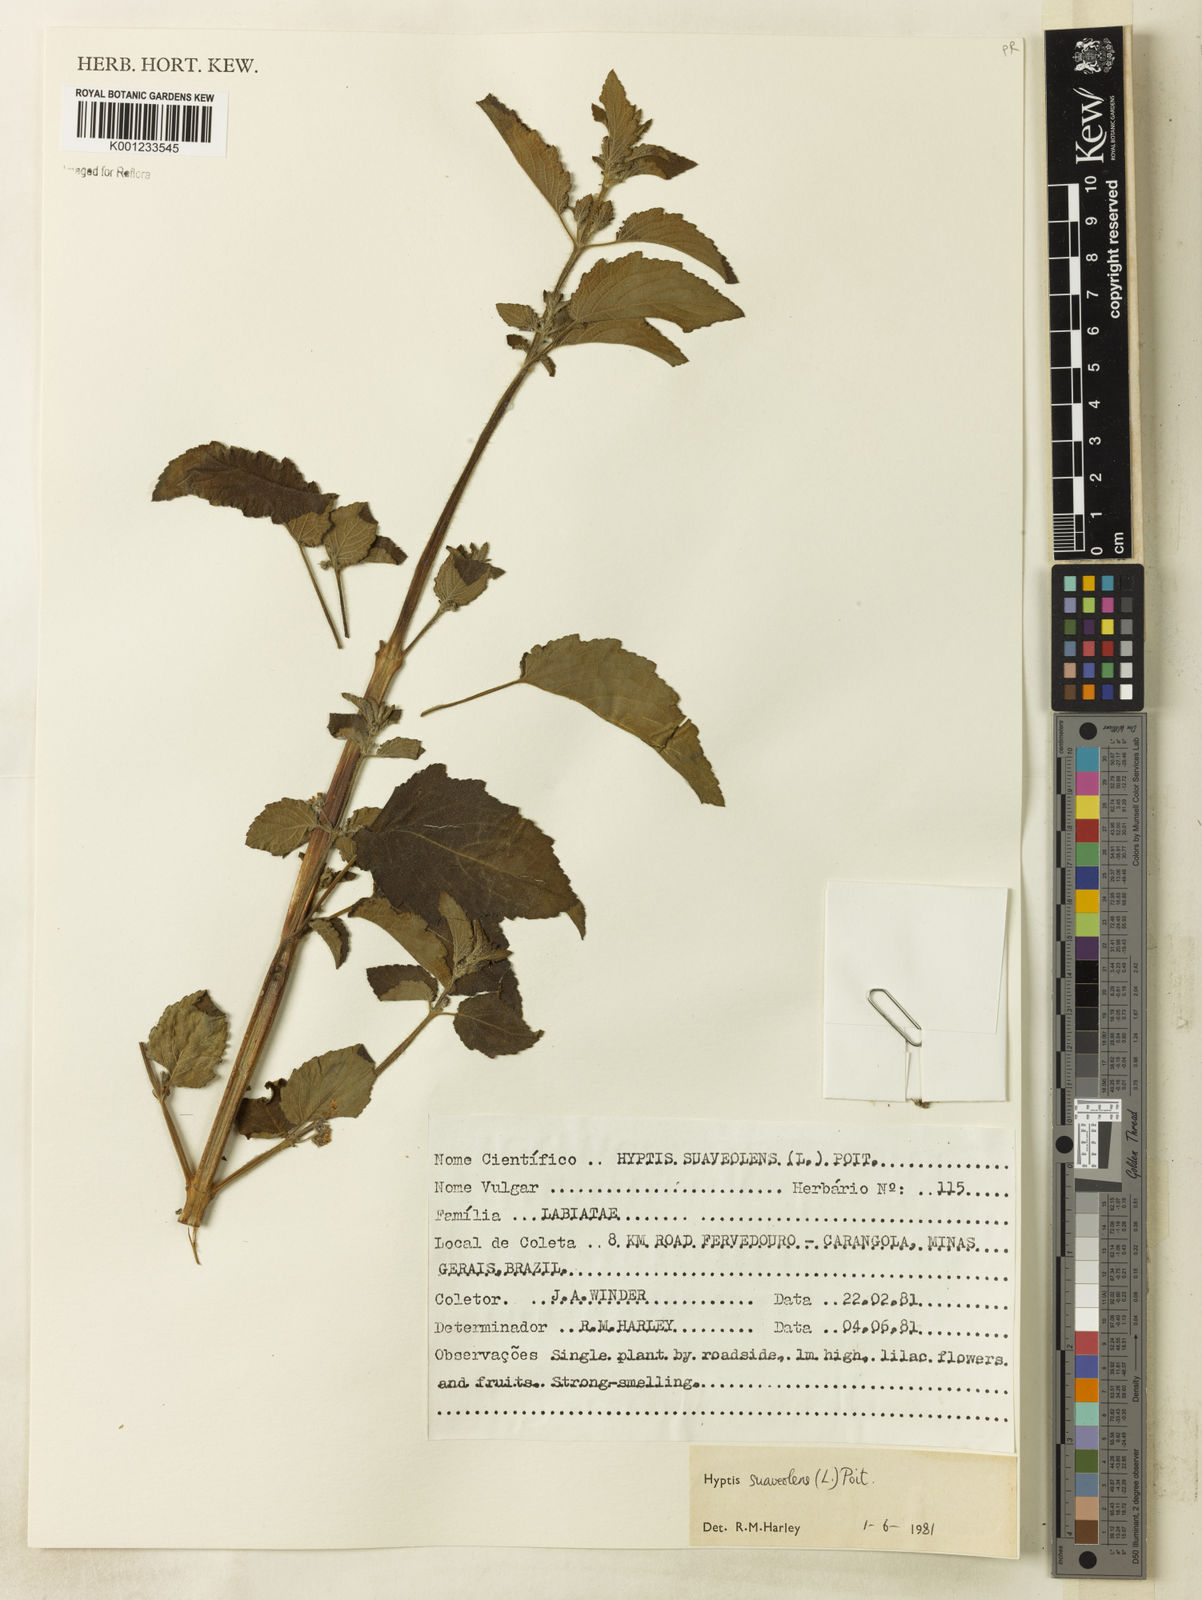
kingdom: Plantae
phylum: Tracheophyta
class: Magnoliopsida
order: Lamiales
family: Lamiaceae
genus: Mesosphaerum
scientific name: Mesosphaerum suaveolens
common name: Pignut
